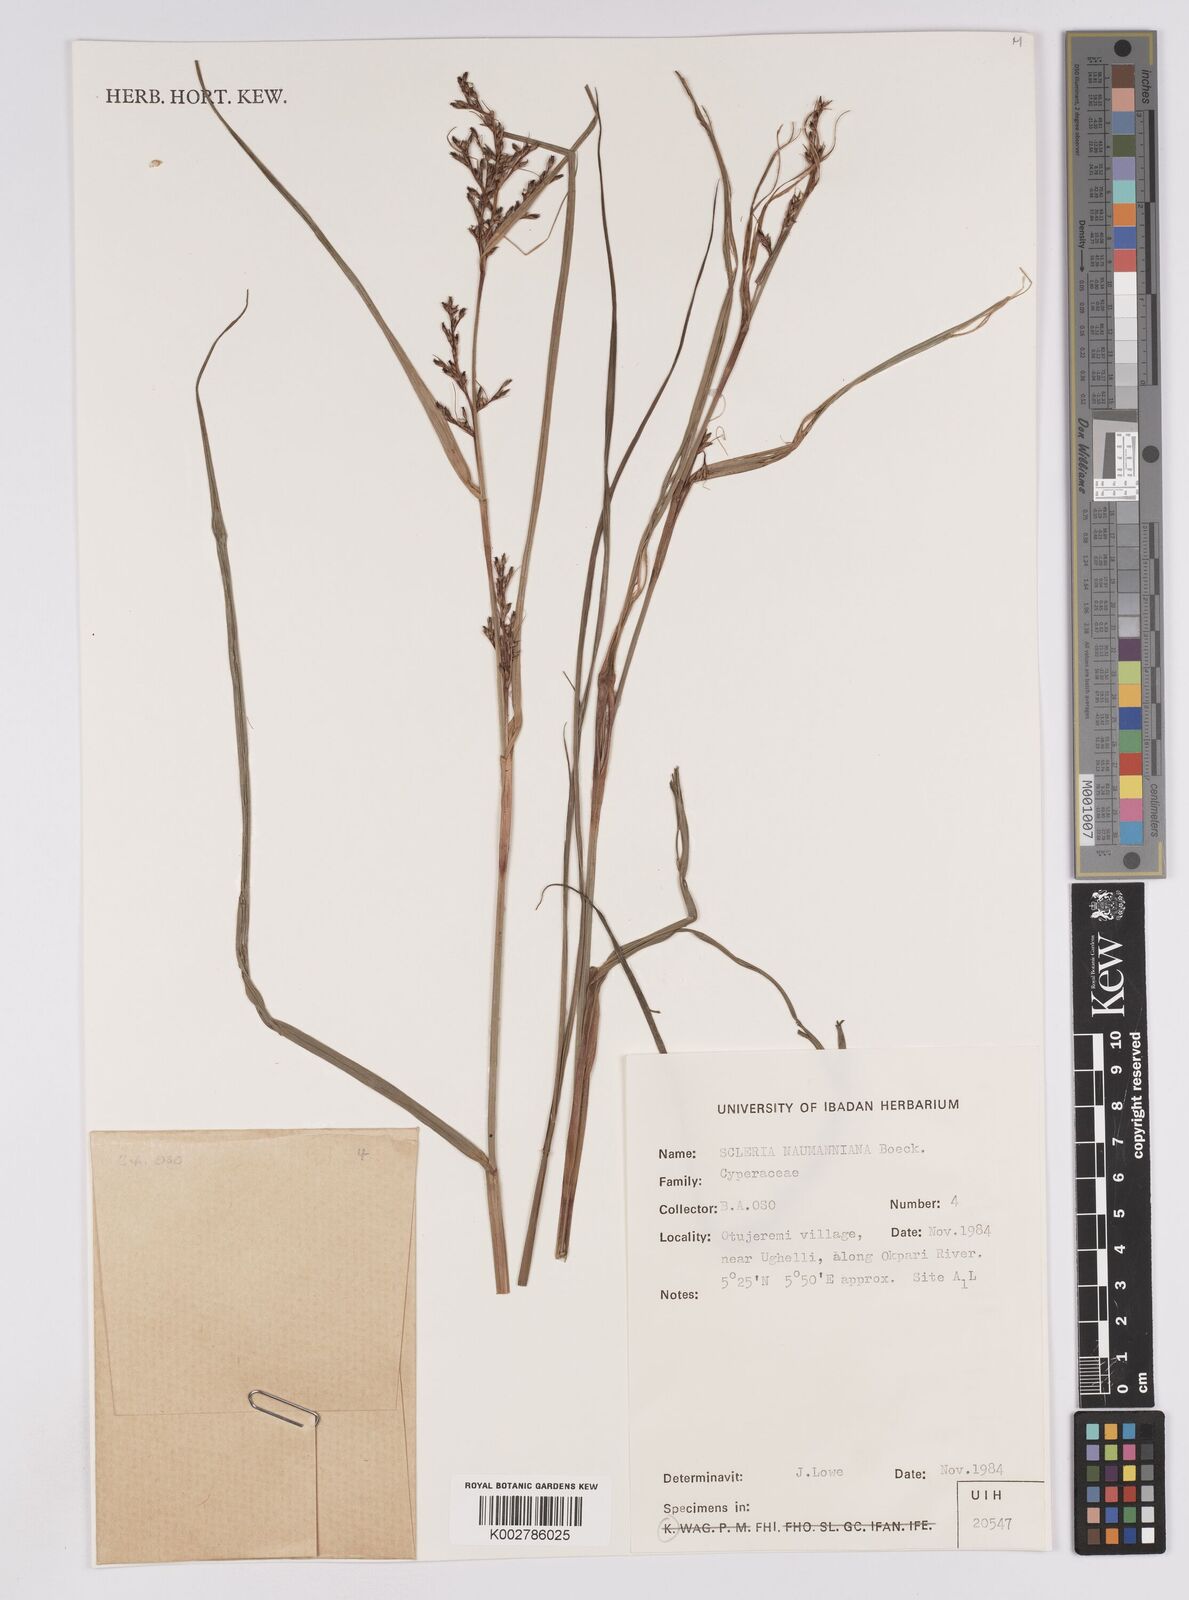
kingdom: Plantae
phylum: Tracheophyta
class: Liliopsida
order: Poales
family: Cyperaceae
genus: Scleria
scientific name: Scleria naumanniana
